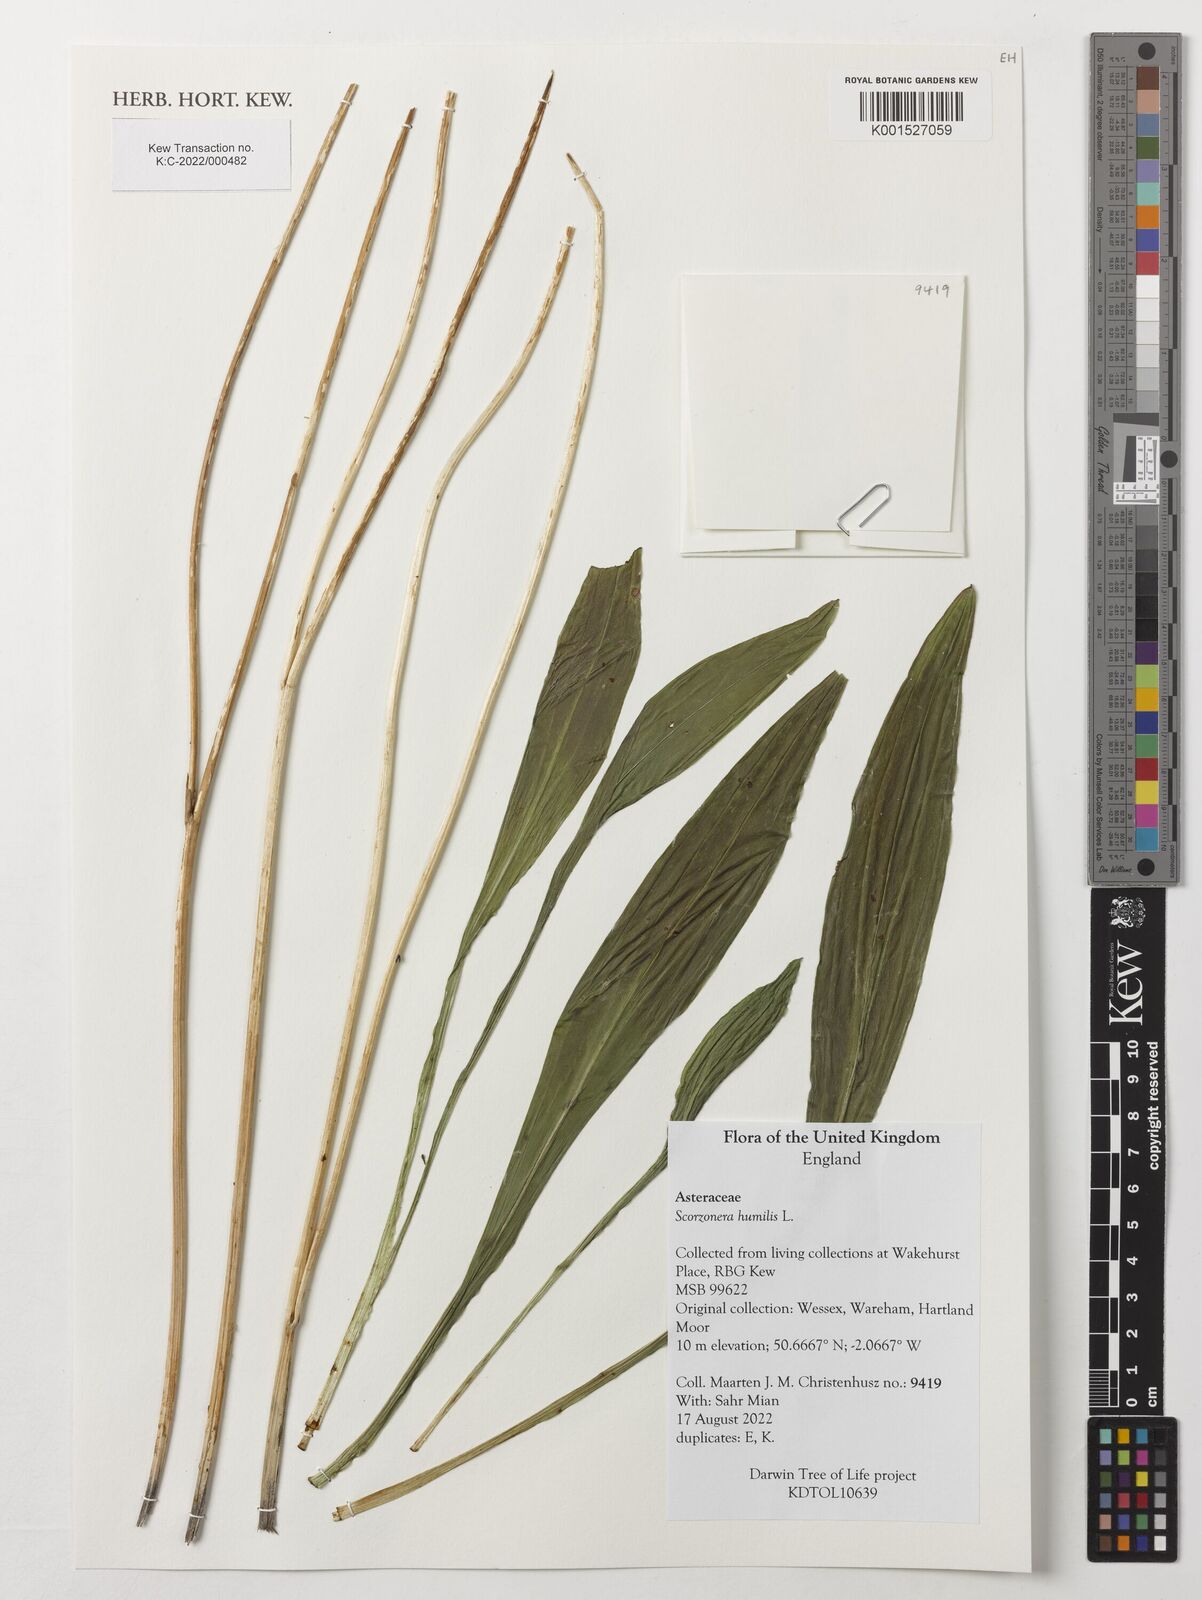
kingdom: Plantae
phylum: Tracheophyta
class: Magnoliopsida
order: Asterales
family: Asteraceae
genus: Scorzonera
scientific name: Scorzonera humilis
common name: Viper's-grass
